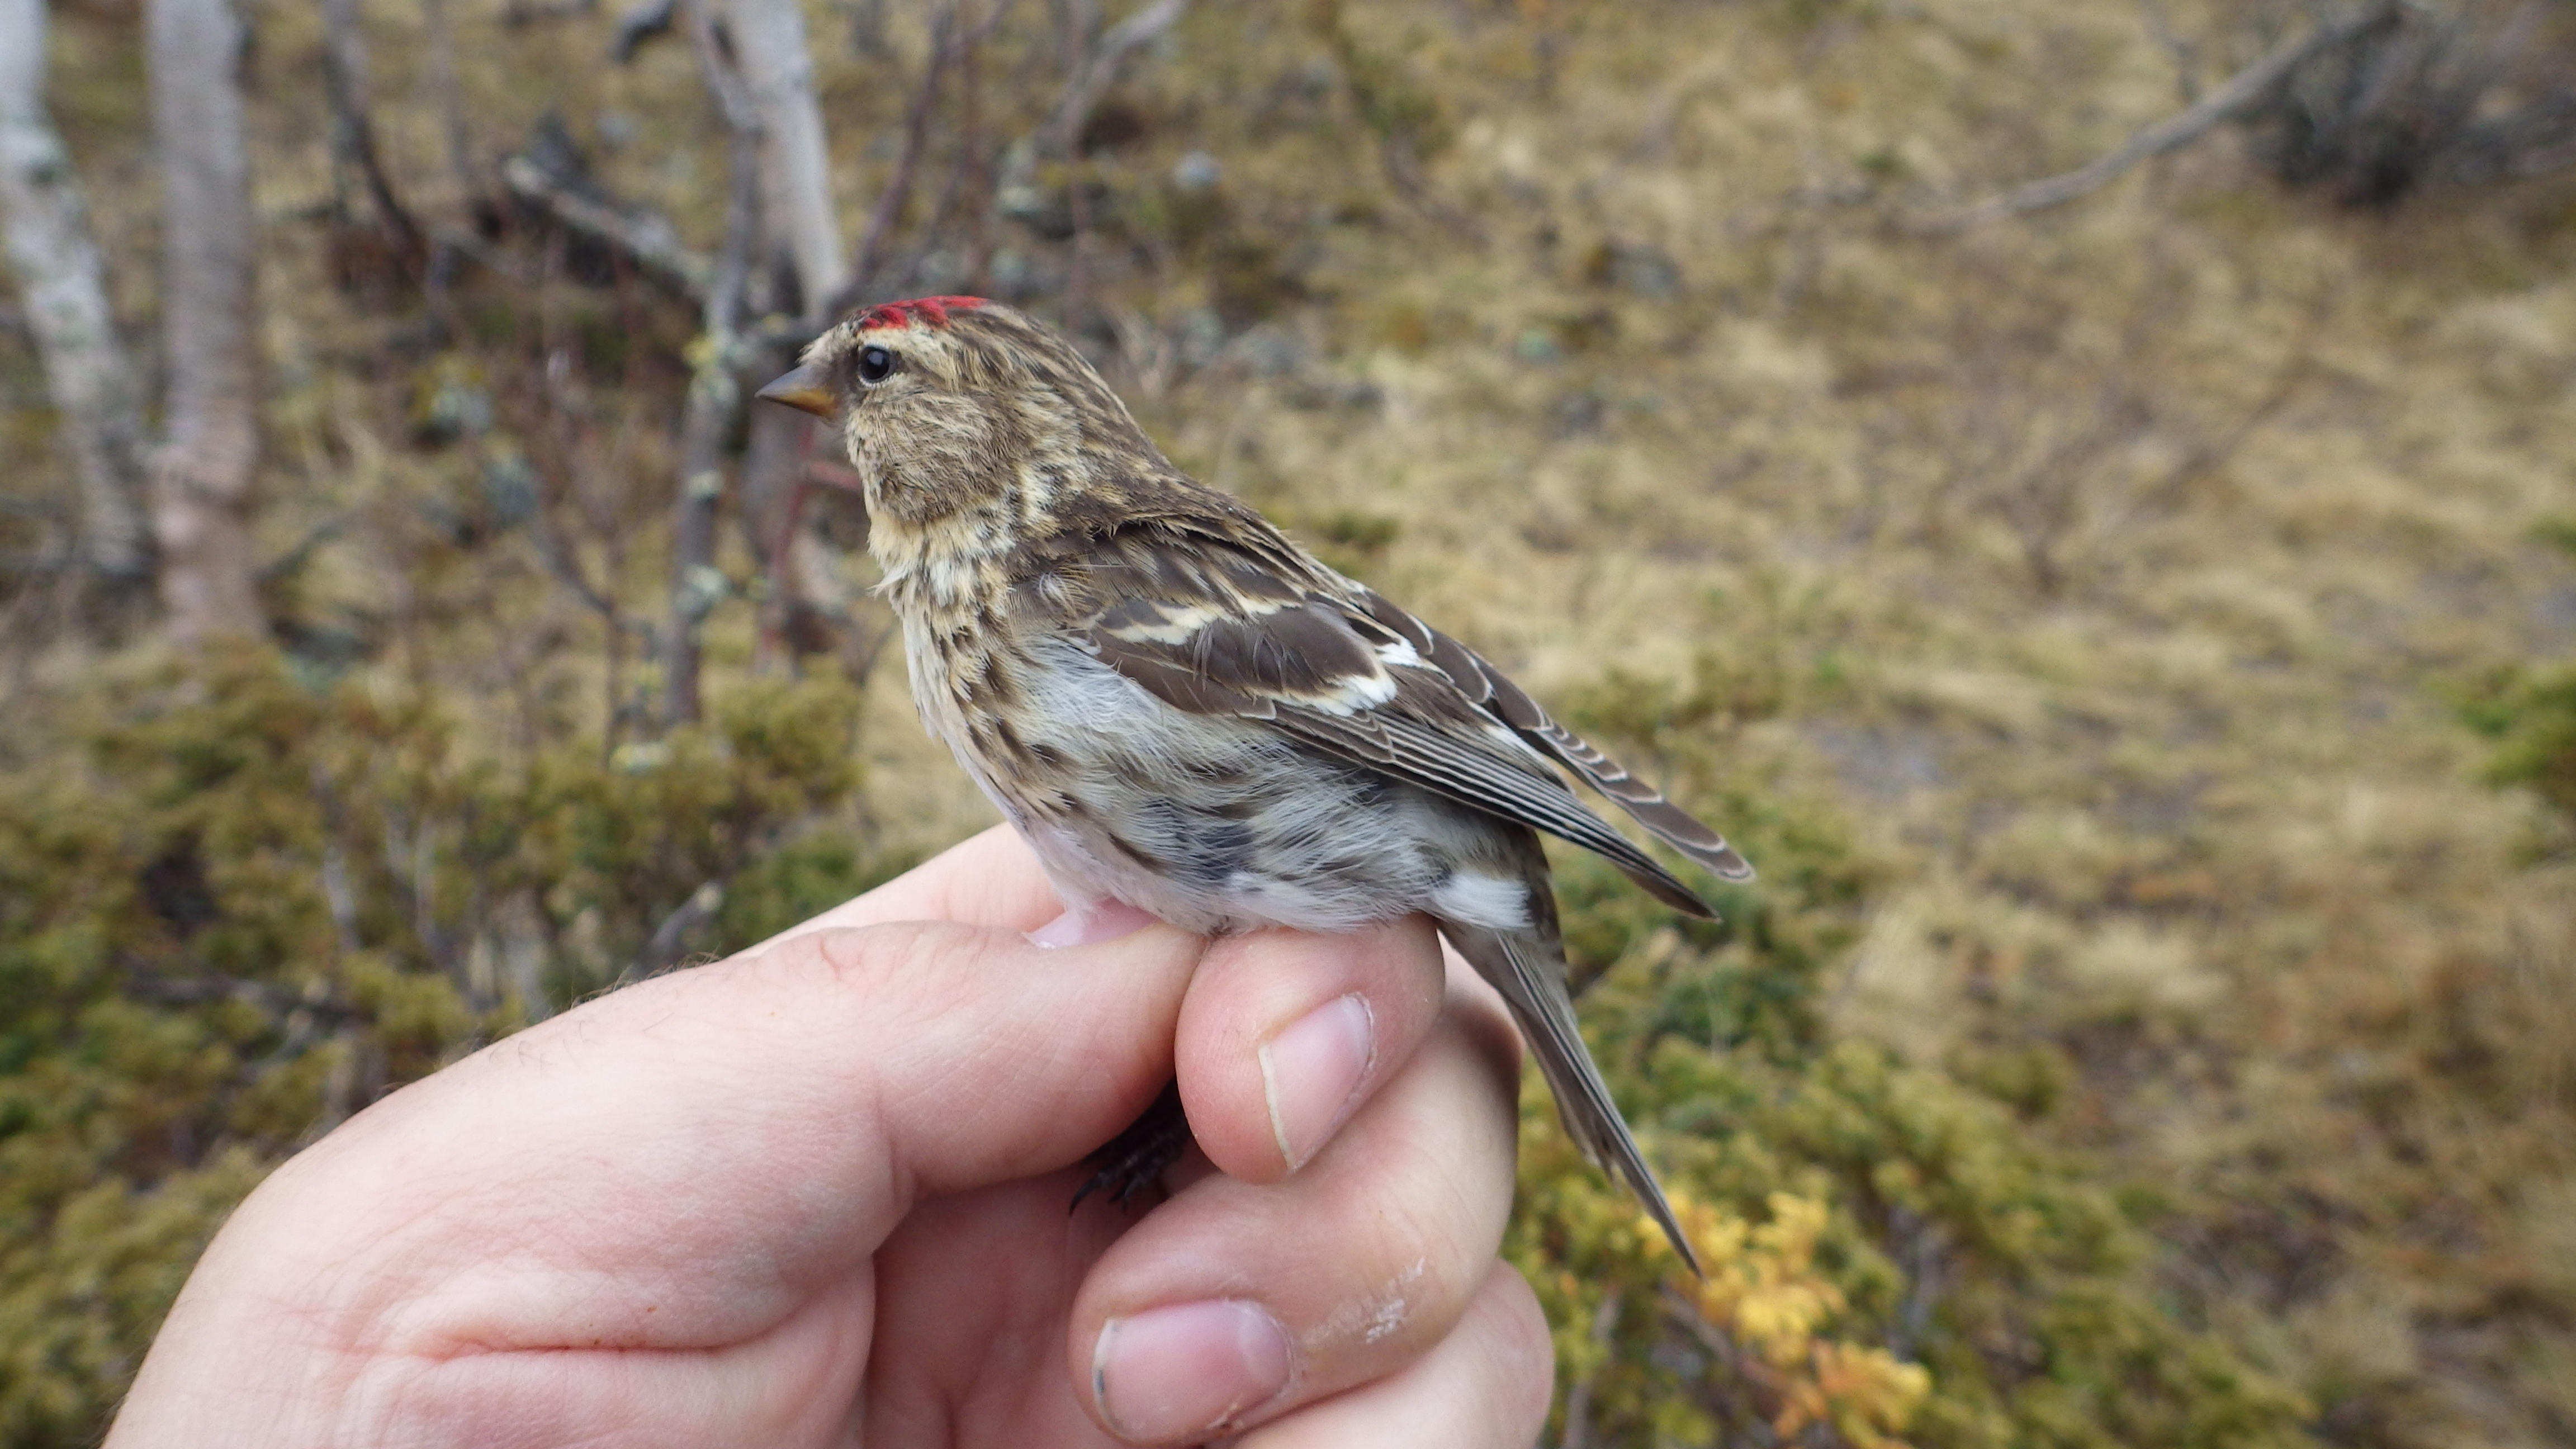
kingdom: Animalia
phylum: Chordata
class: Aves
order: Passeriformes
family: Fringillidae
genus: Acanthis
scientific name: Acanthis flammea
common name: Common redpoll
